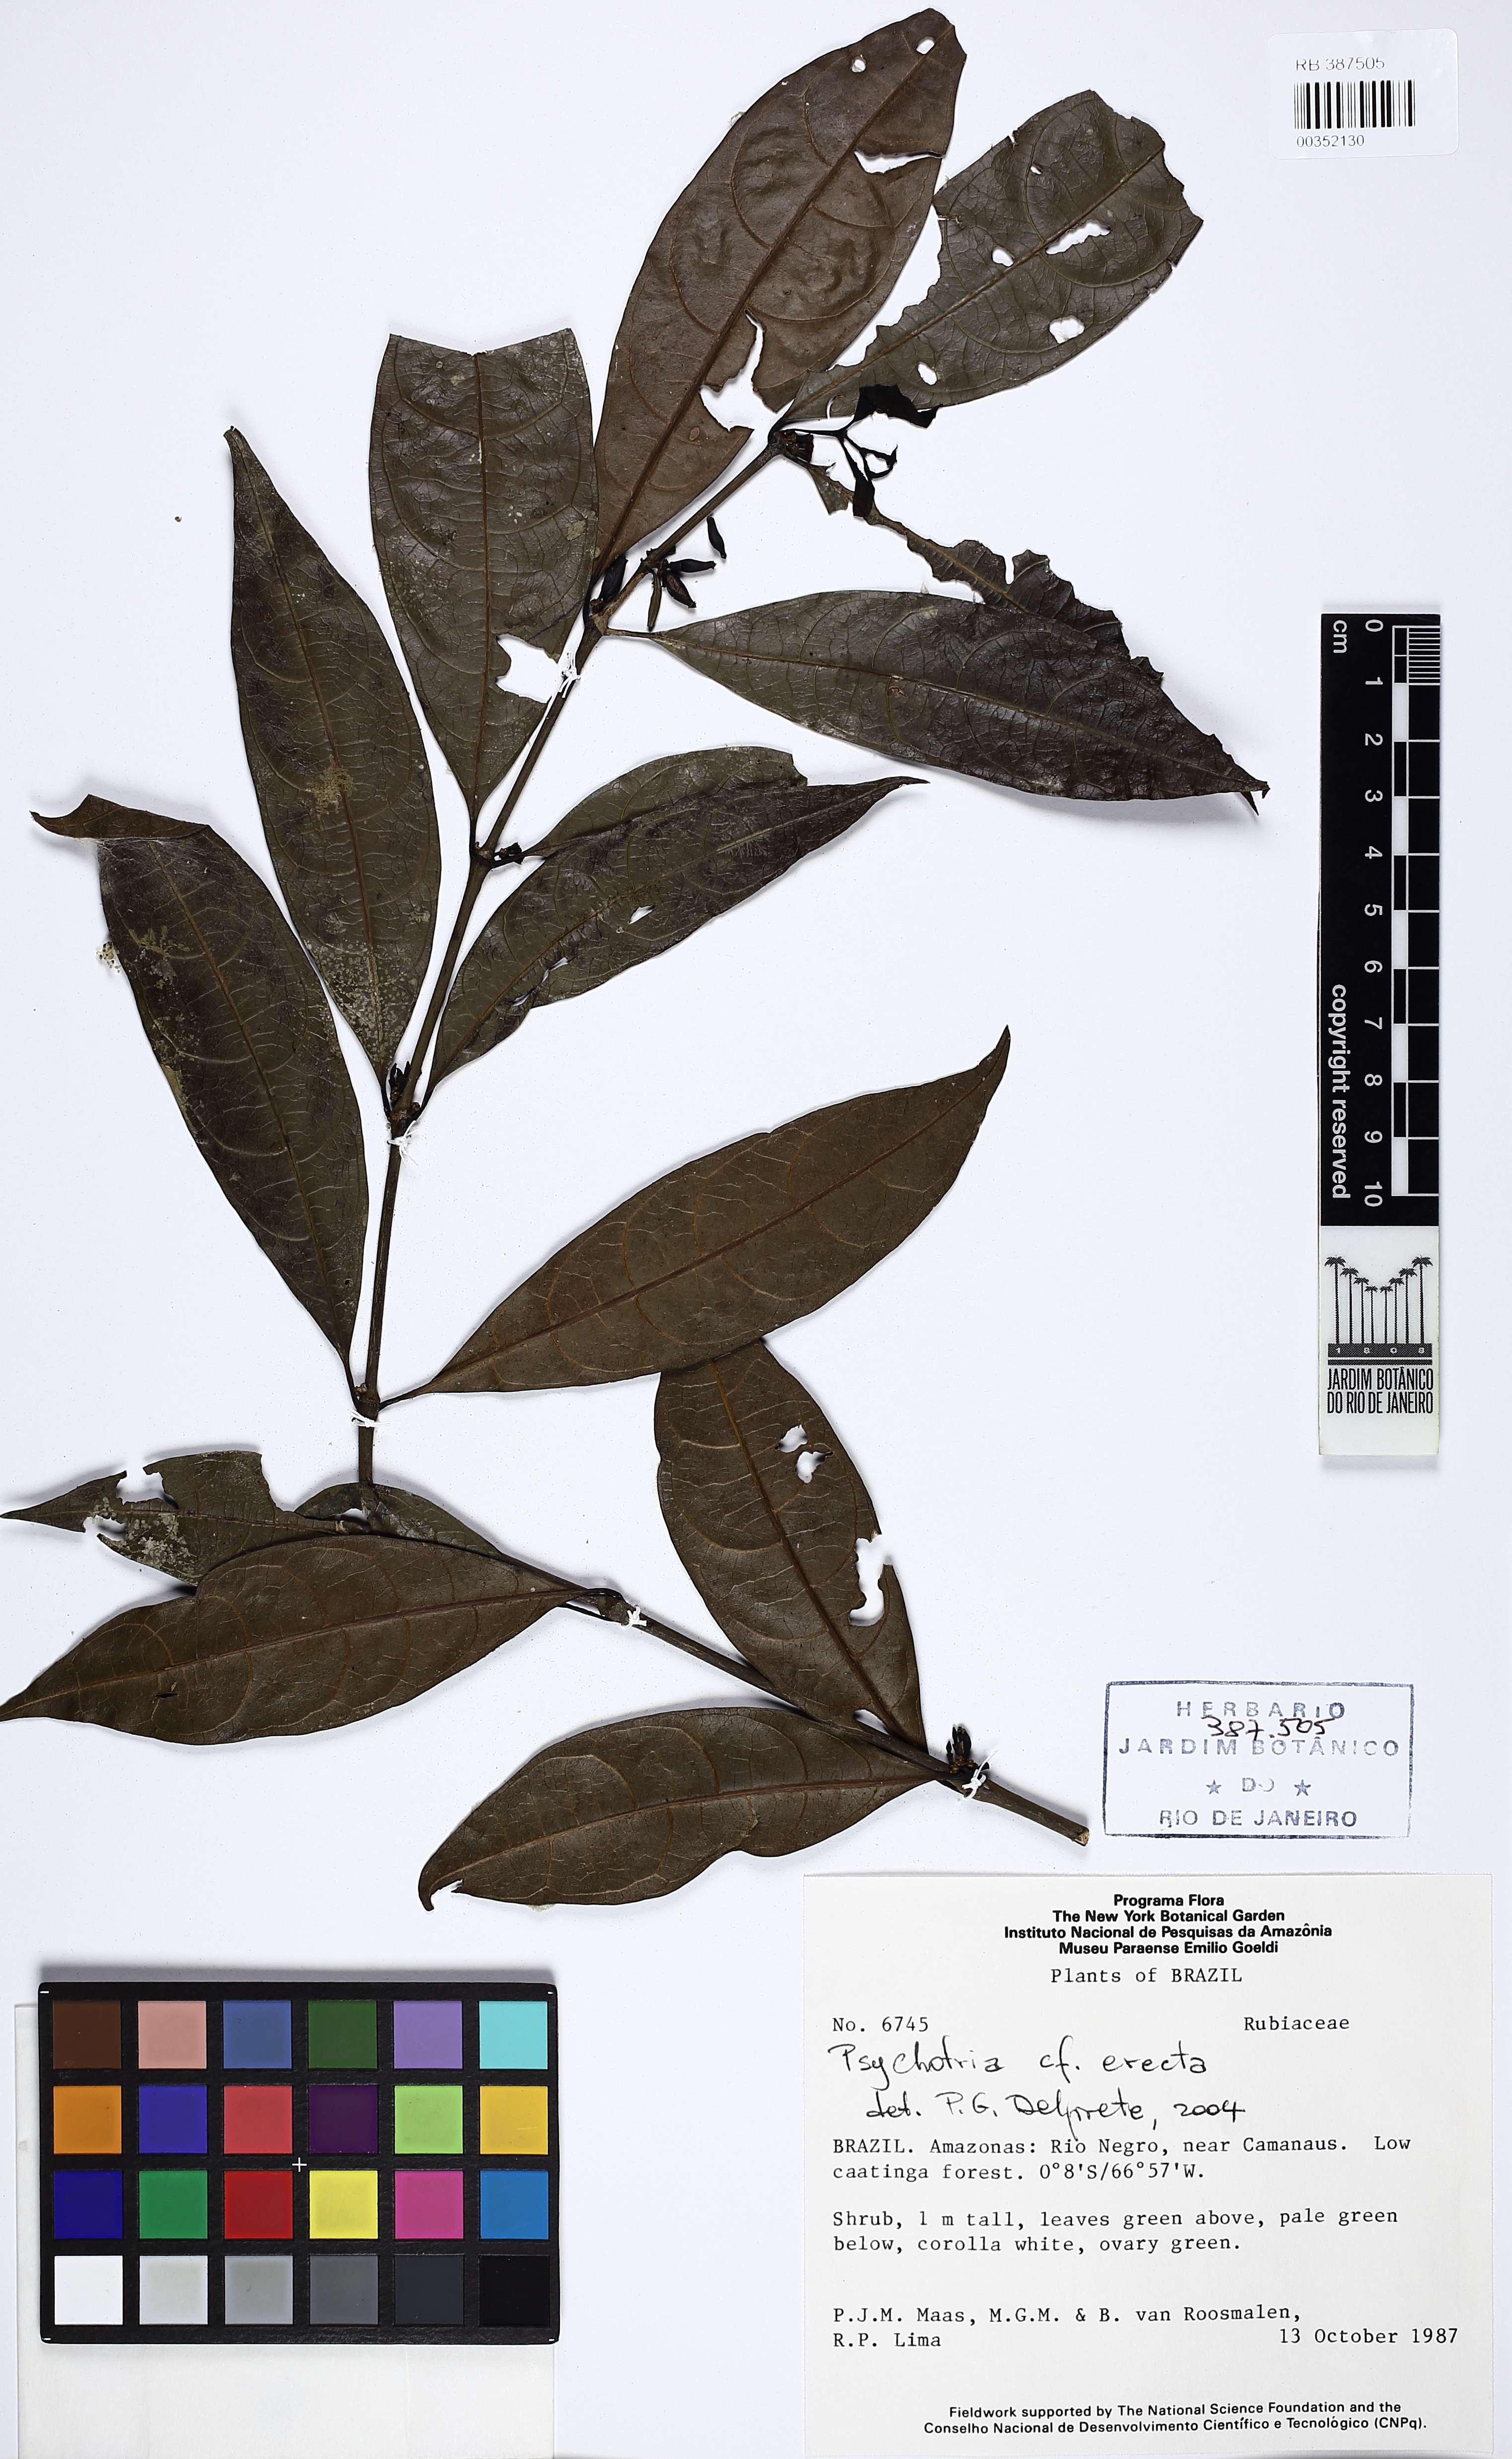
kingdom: Plantae
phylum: Tracheophyta
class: Magnoliopsida
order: Gentianales
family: Rubiaceae
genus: Ronabea
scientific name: Ronabea latifolia
